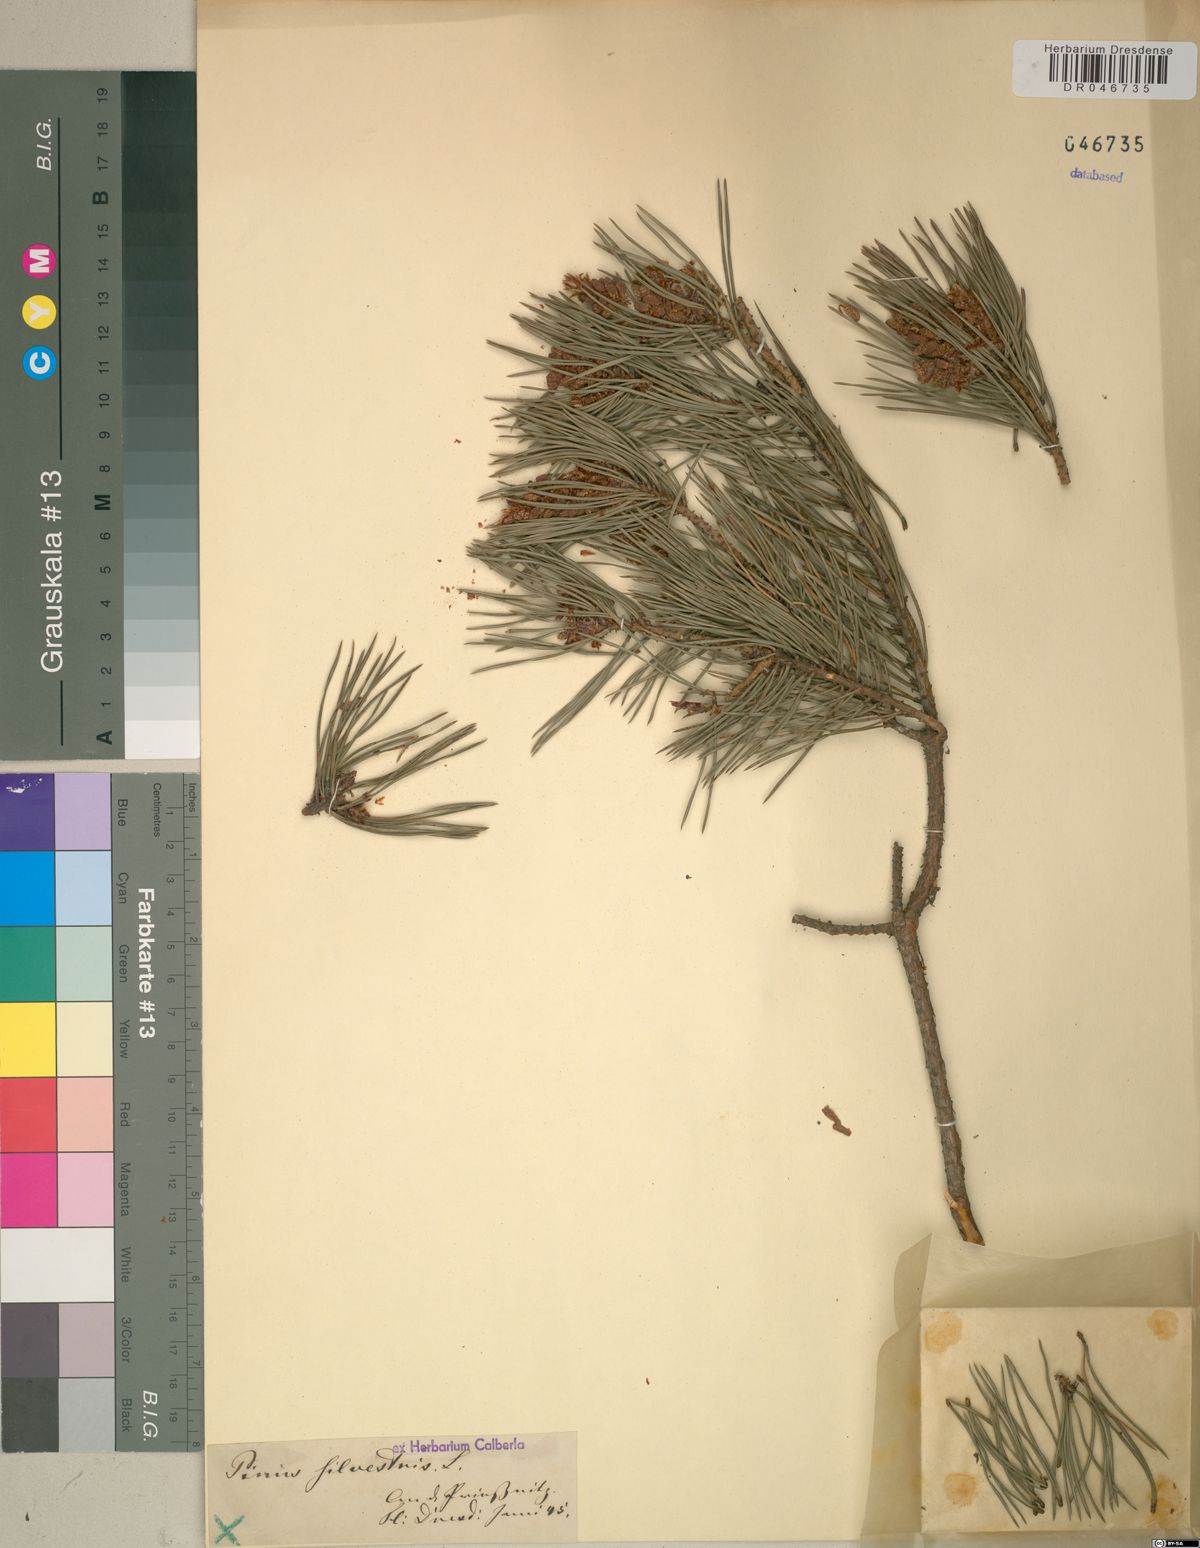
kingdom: Plantae
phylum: Tracheophyta
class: Pinopsida
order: Pinales
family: Pinaceae
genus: Pinus
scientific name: Pinus sylvestris
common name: Scots pine
